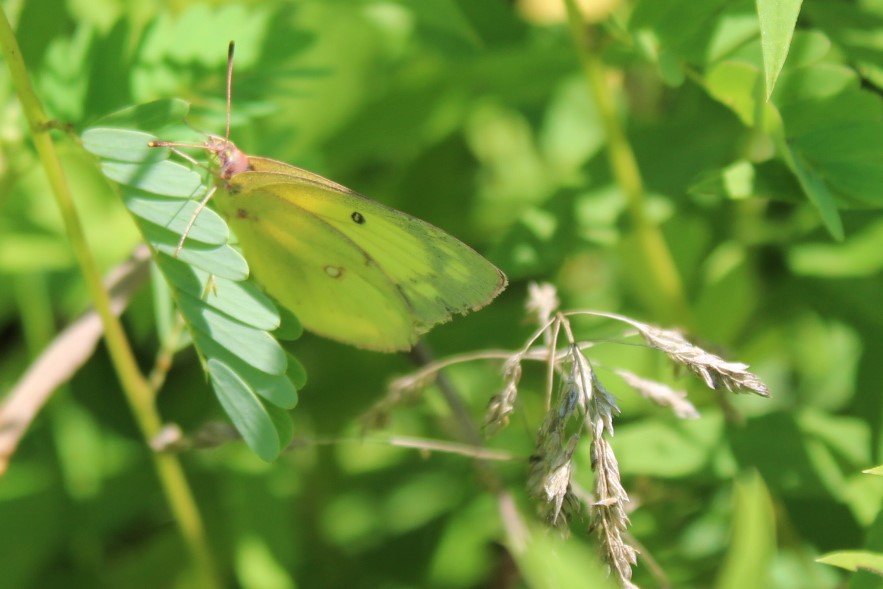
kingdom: Animalia
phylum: Arthropoda
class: Insecta
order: Lepidoptera
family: Pieridae
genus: Colias
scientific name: Colias philodice
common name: Clouded Sulphur
